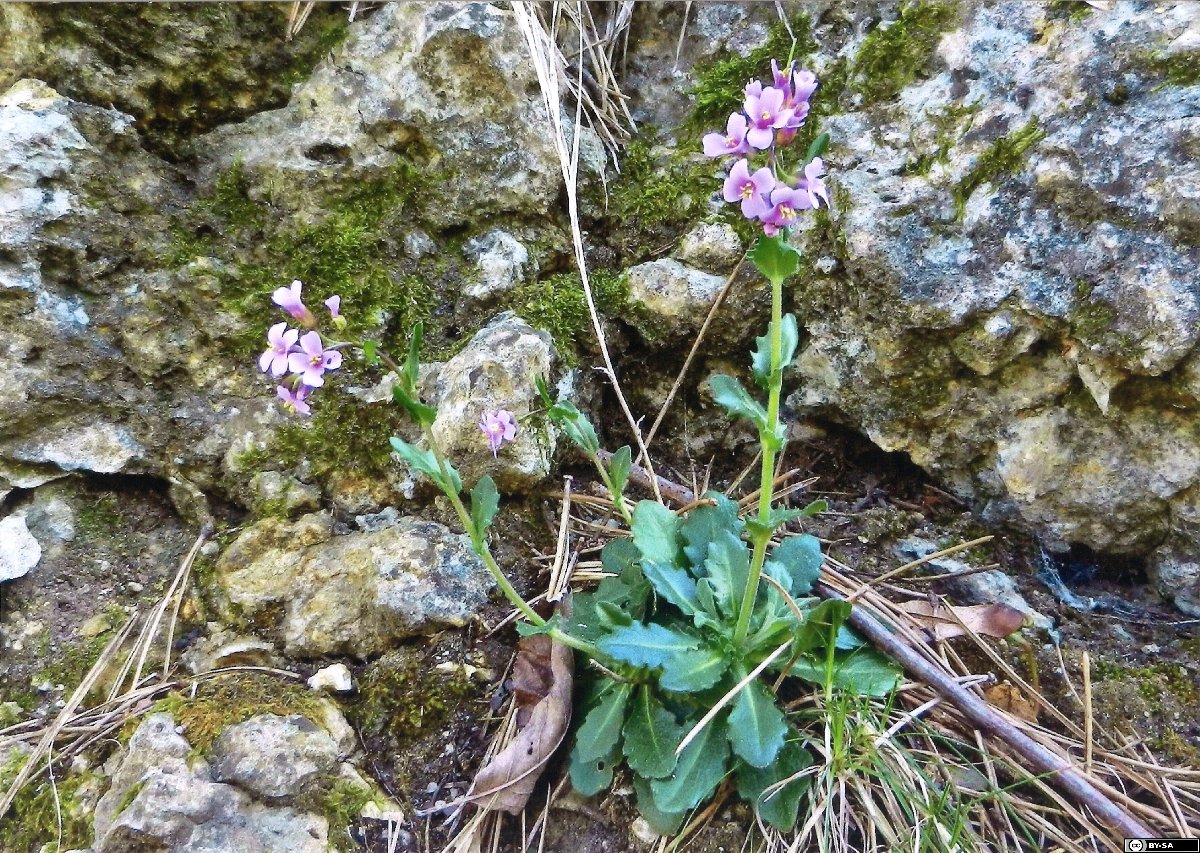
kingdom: Plantae
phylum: Tracheophyta
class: Magnoliopsida
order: Brassicales
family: Brassicaceae
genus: Arabis
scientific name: Arabis collina
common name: Rosy cress
